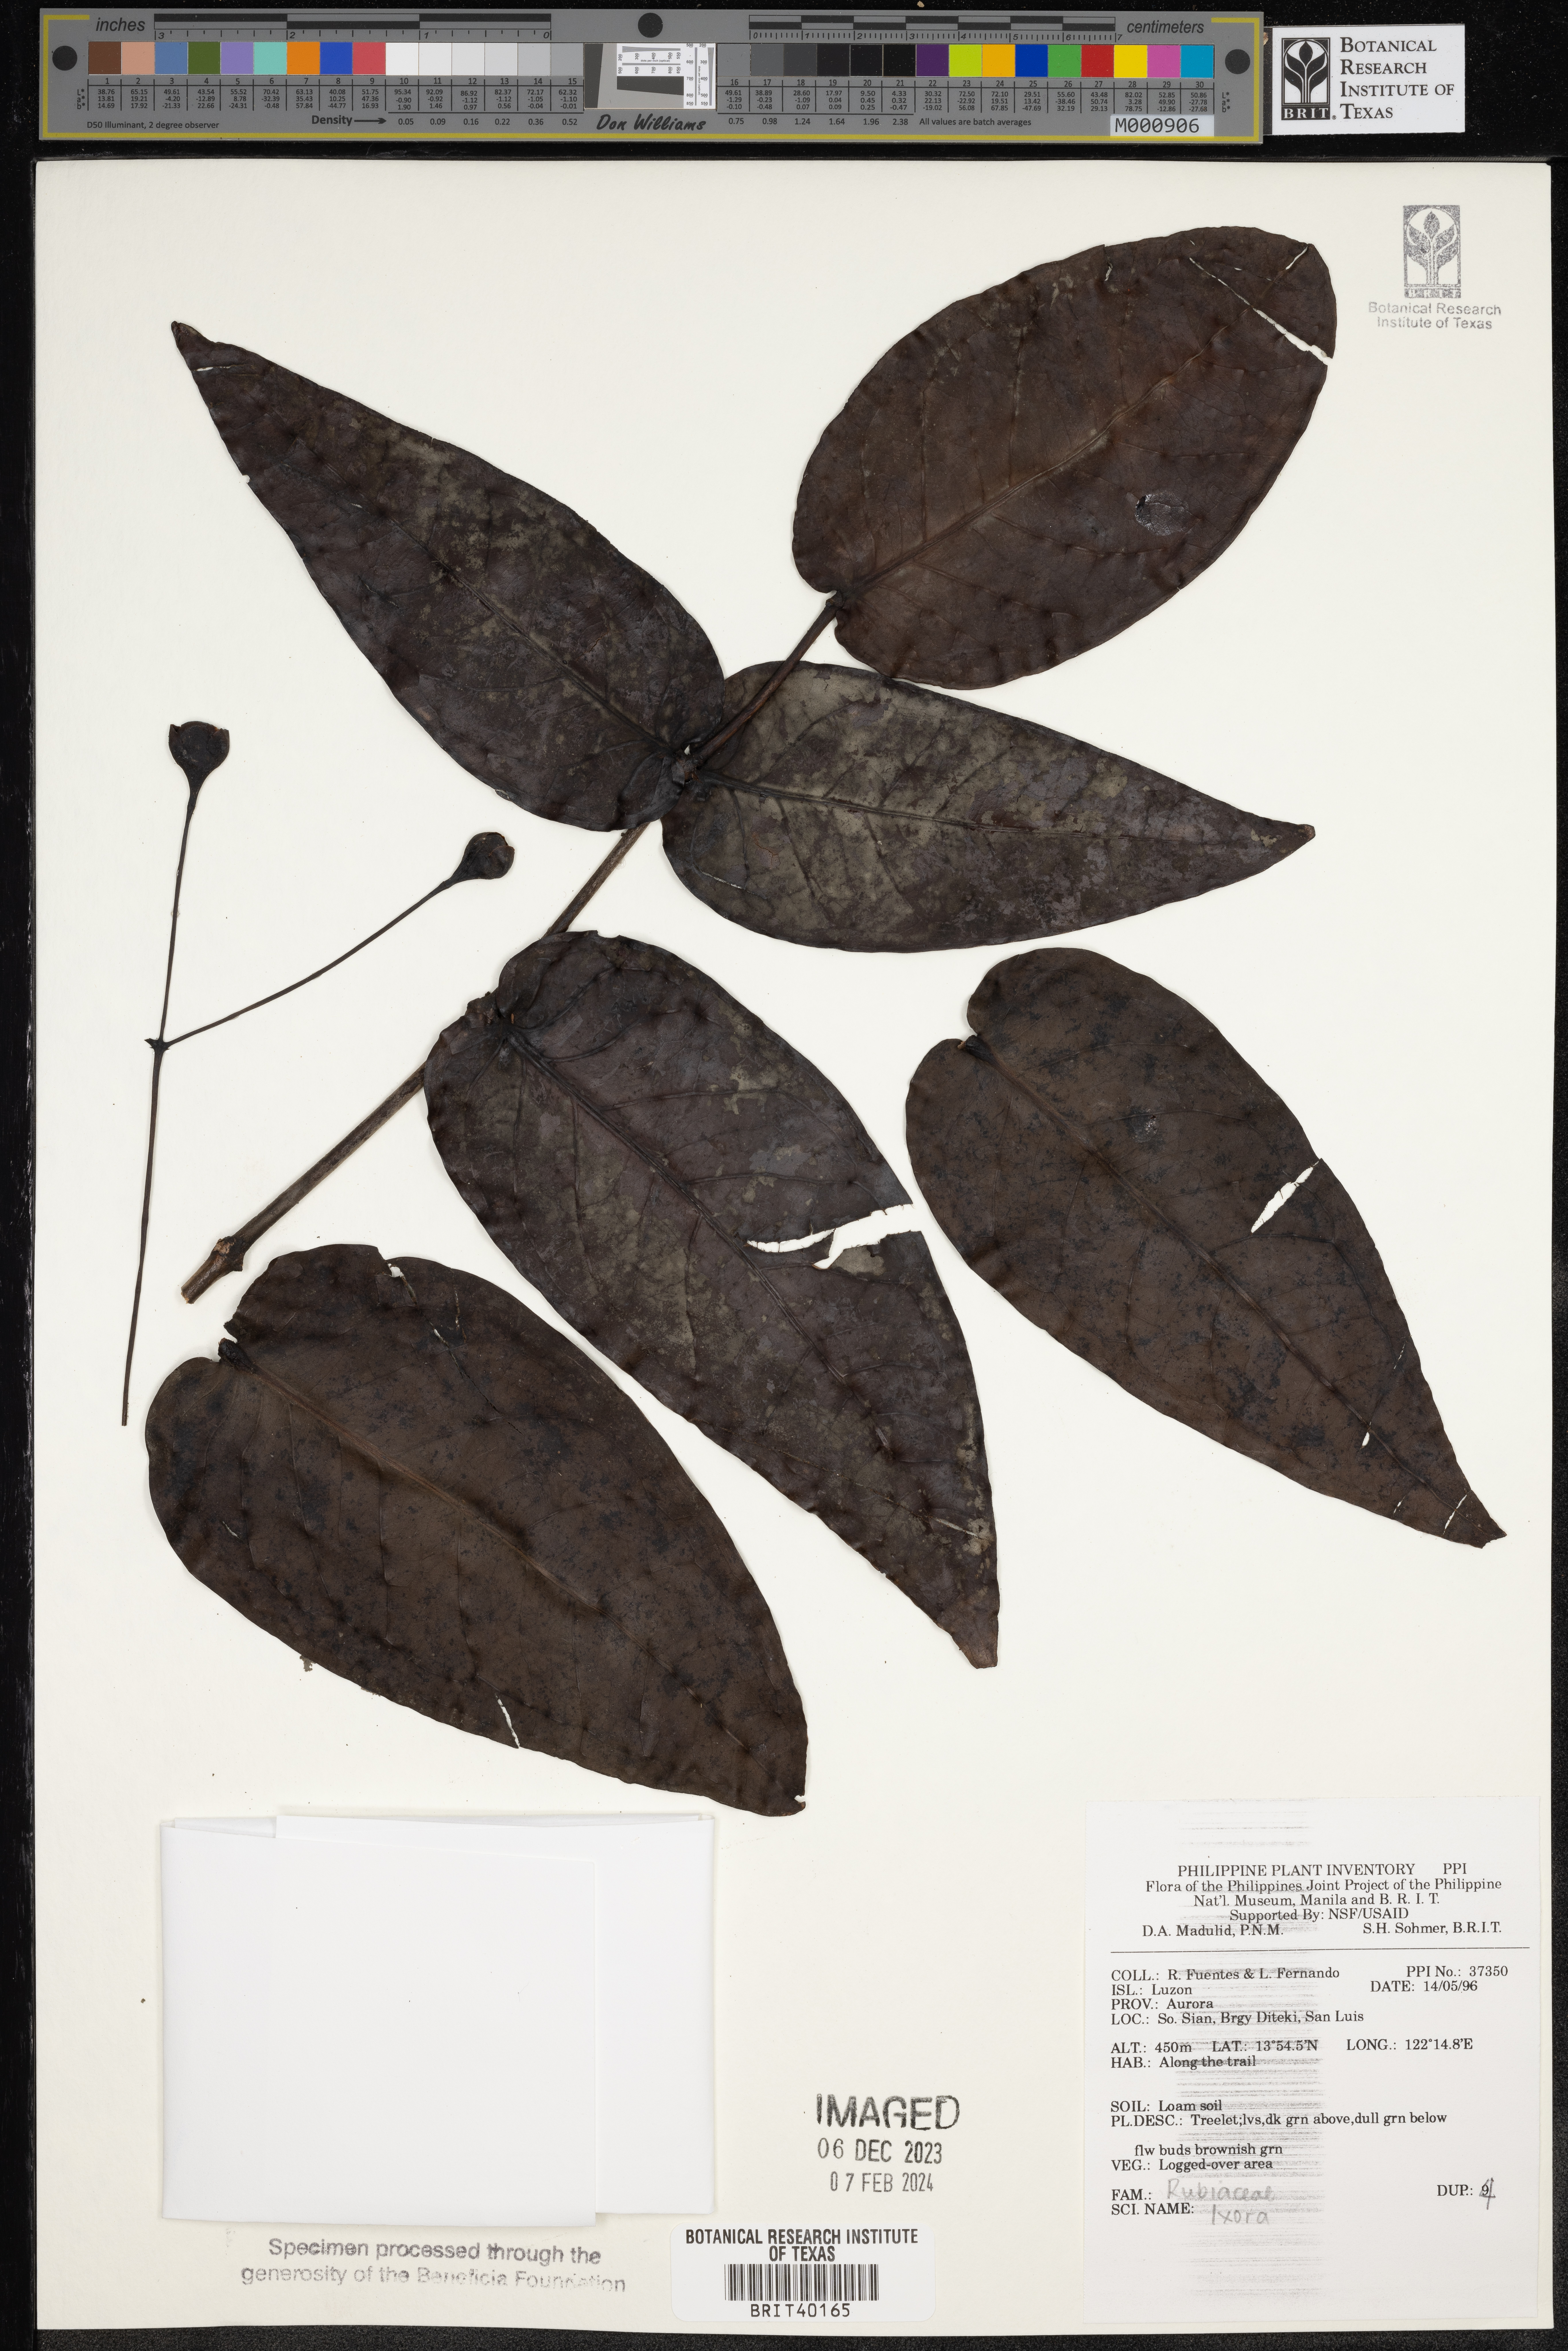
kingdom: Plantae
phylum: Tracheophyta
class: Magnoliopsida
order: Gentianales
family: Rubiaceae
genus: Ixora
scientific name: Ixora
